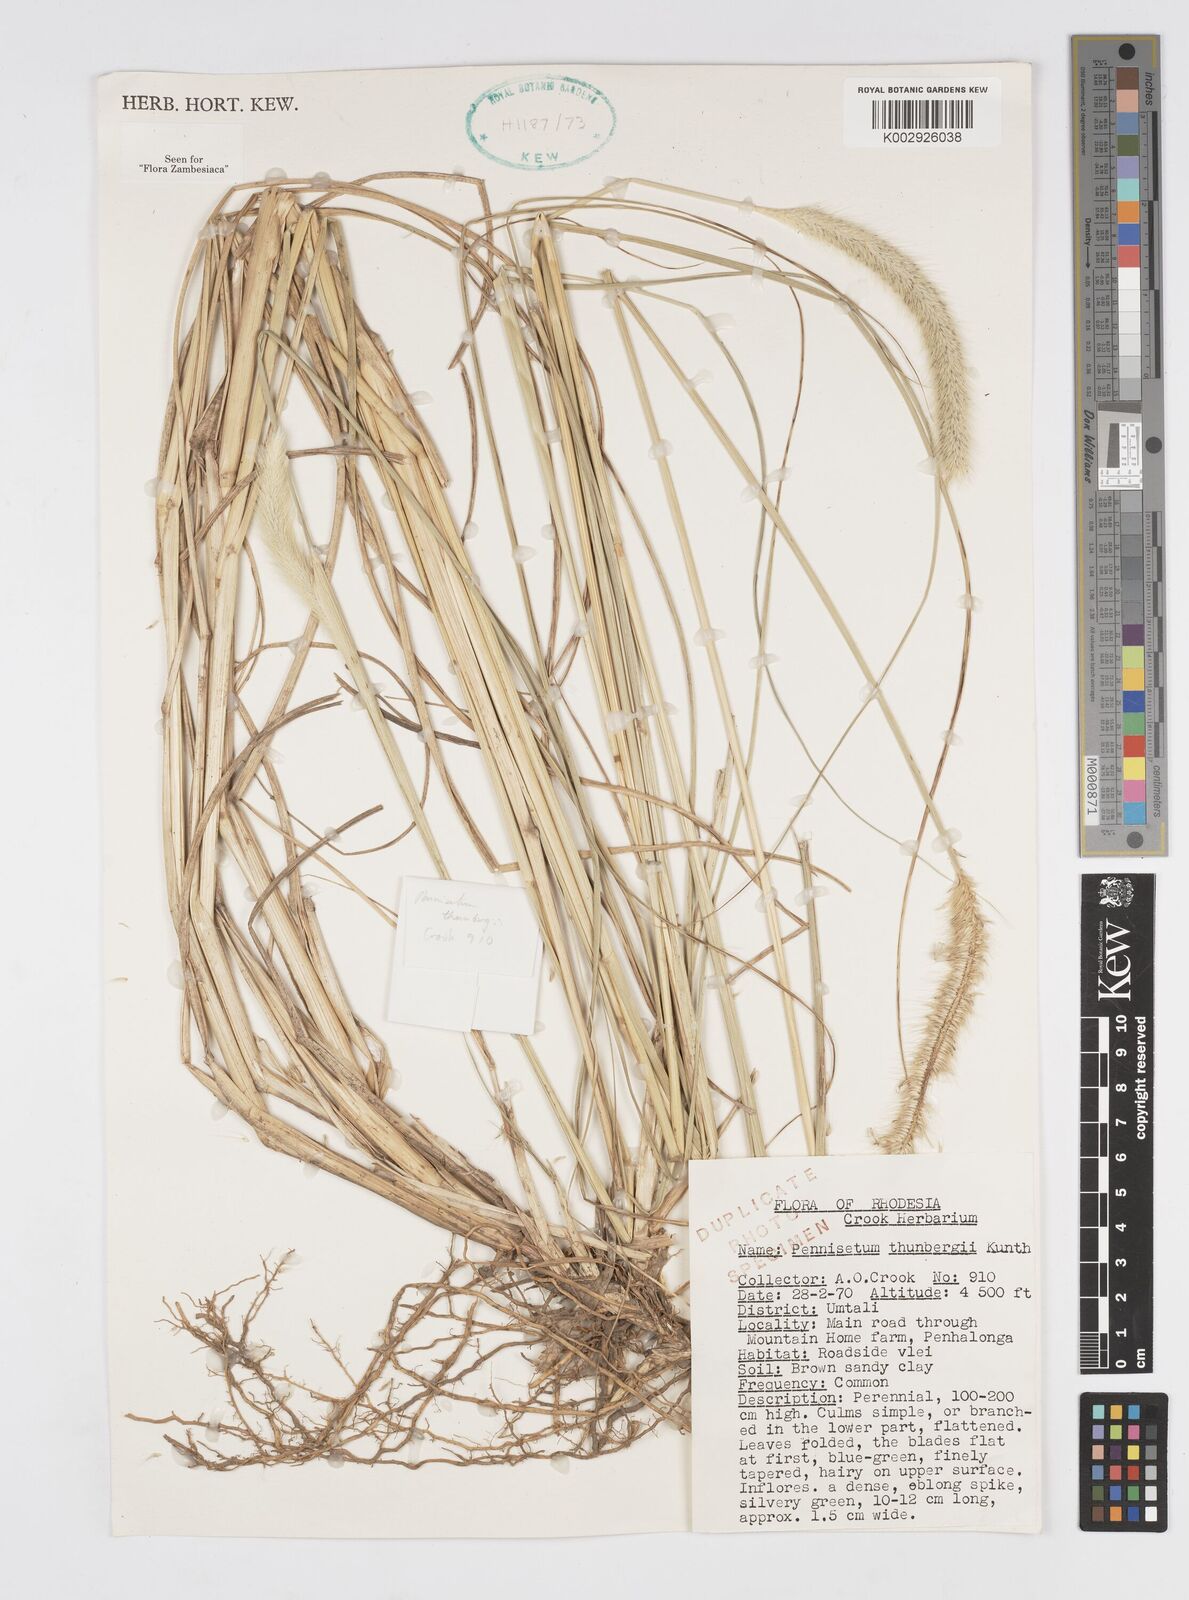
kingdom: Plantae
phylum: Tracheophyta
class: Liliopsida
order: Poales
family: Poaceae
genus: Cenchrus
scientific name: Cenchrus geniculatus
